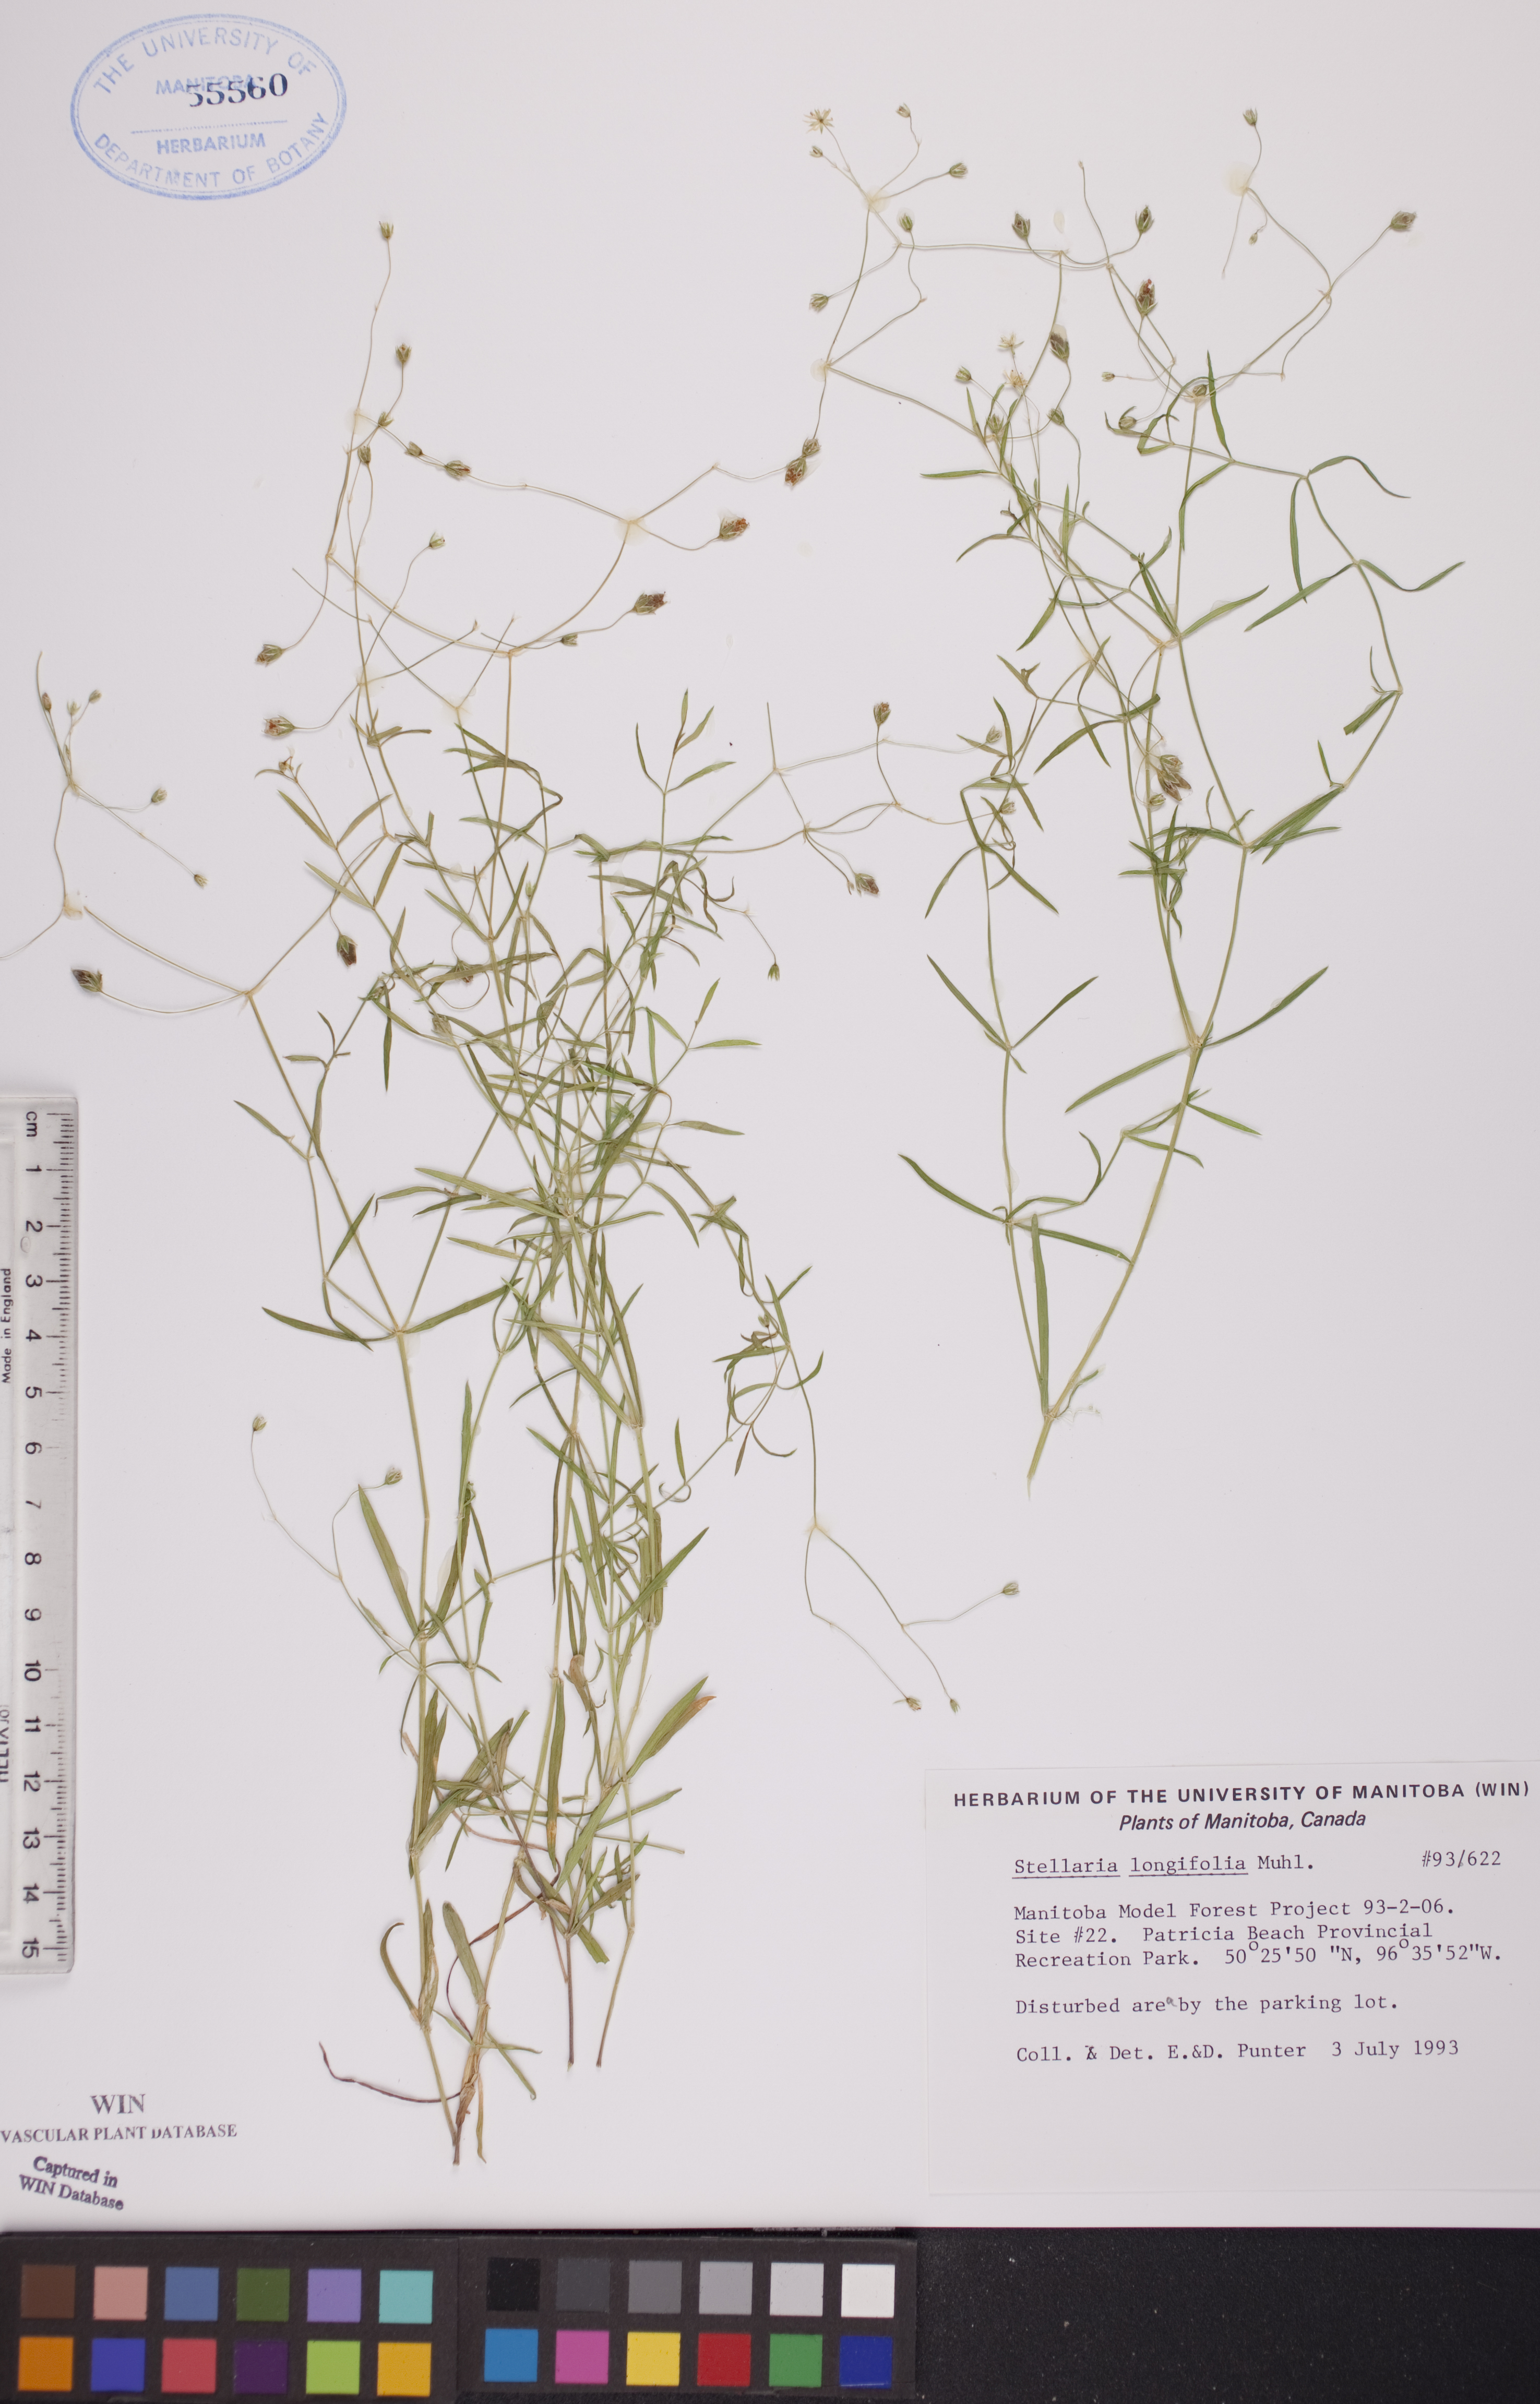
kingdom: Plantae
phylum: Tracheophyta
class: Magnoliopsida
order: Caryophyllales
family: Caryophyllaceae
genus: Stellaria
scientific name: Stellaria longifolia
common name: Long-leaved chickweed
